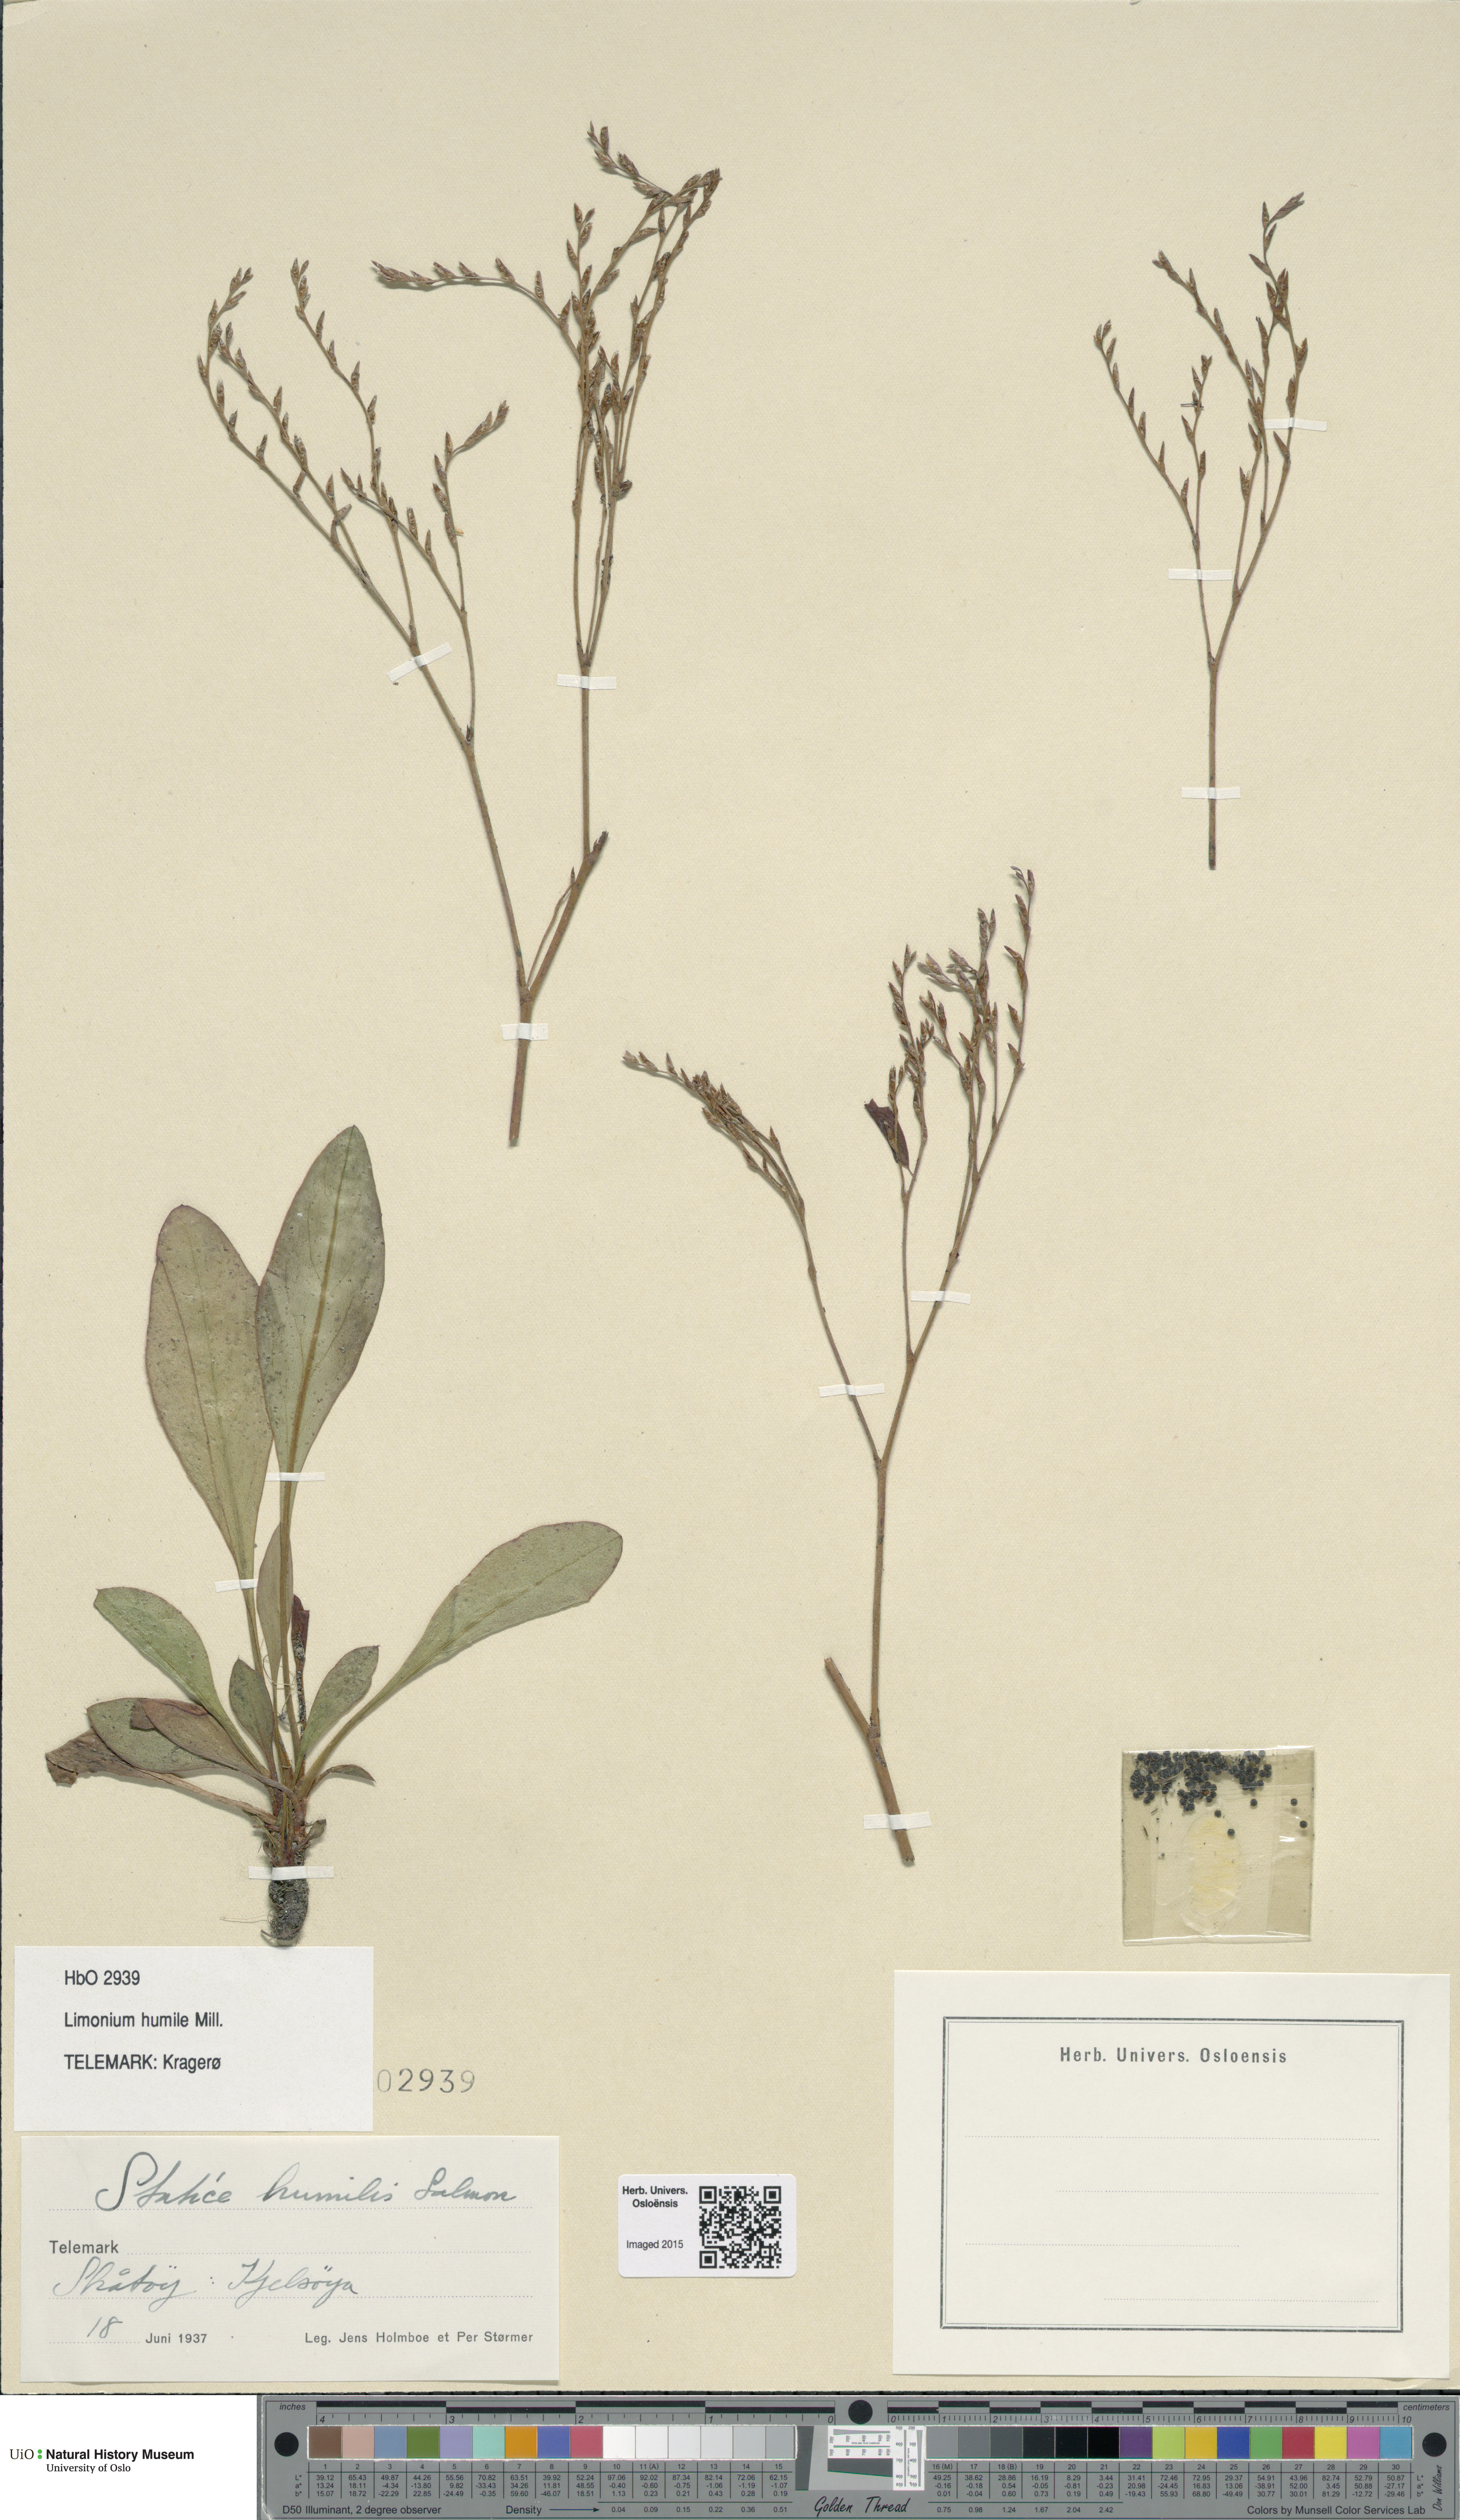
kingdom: Plantae
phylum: Tracheophyta
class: Magnoliopsida
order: Caryophyllales
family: Plumbaginaceae
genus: Limonium
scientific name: Limonium humile
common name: Lax-flowered sea-lavender
